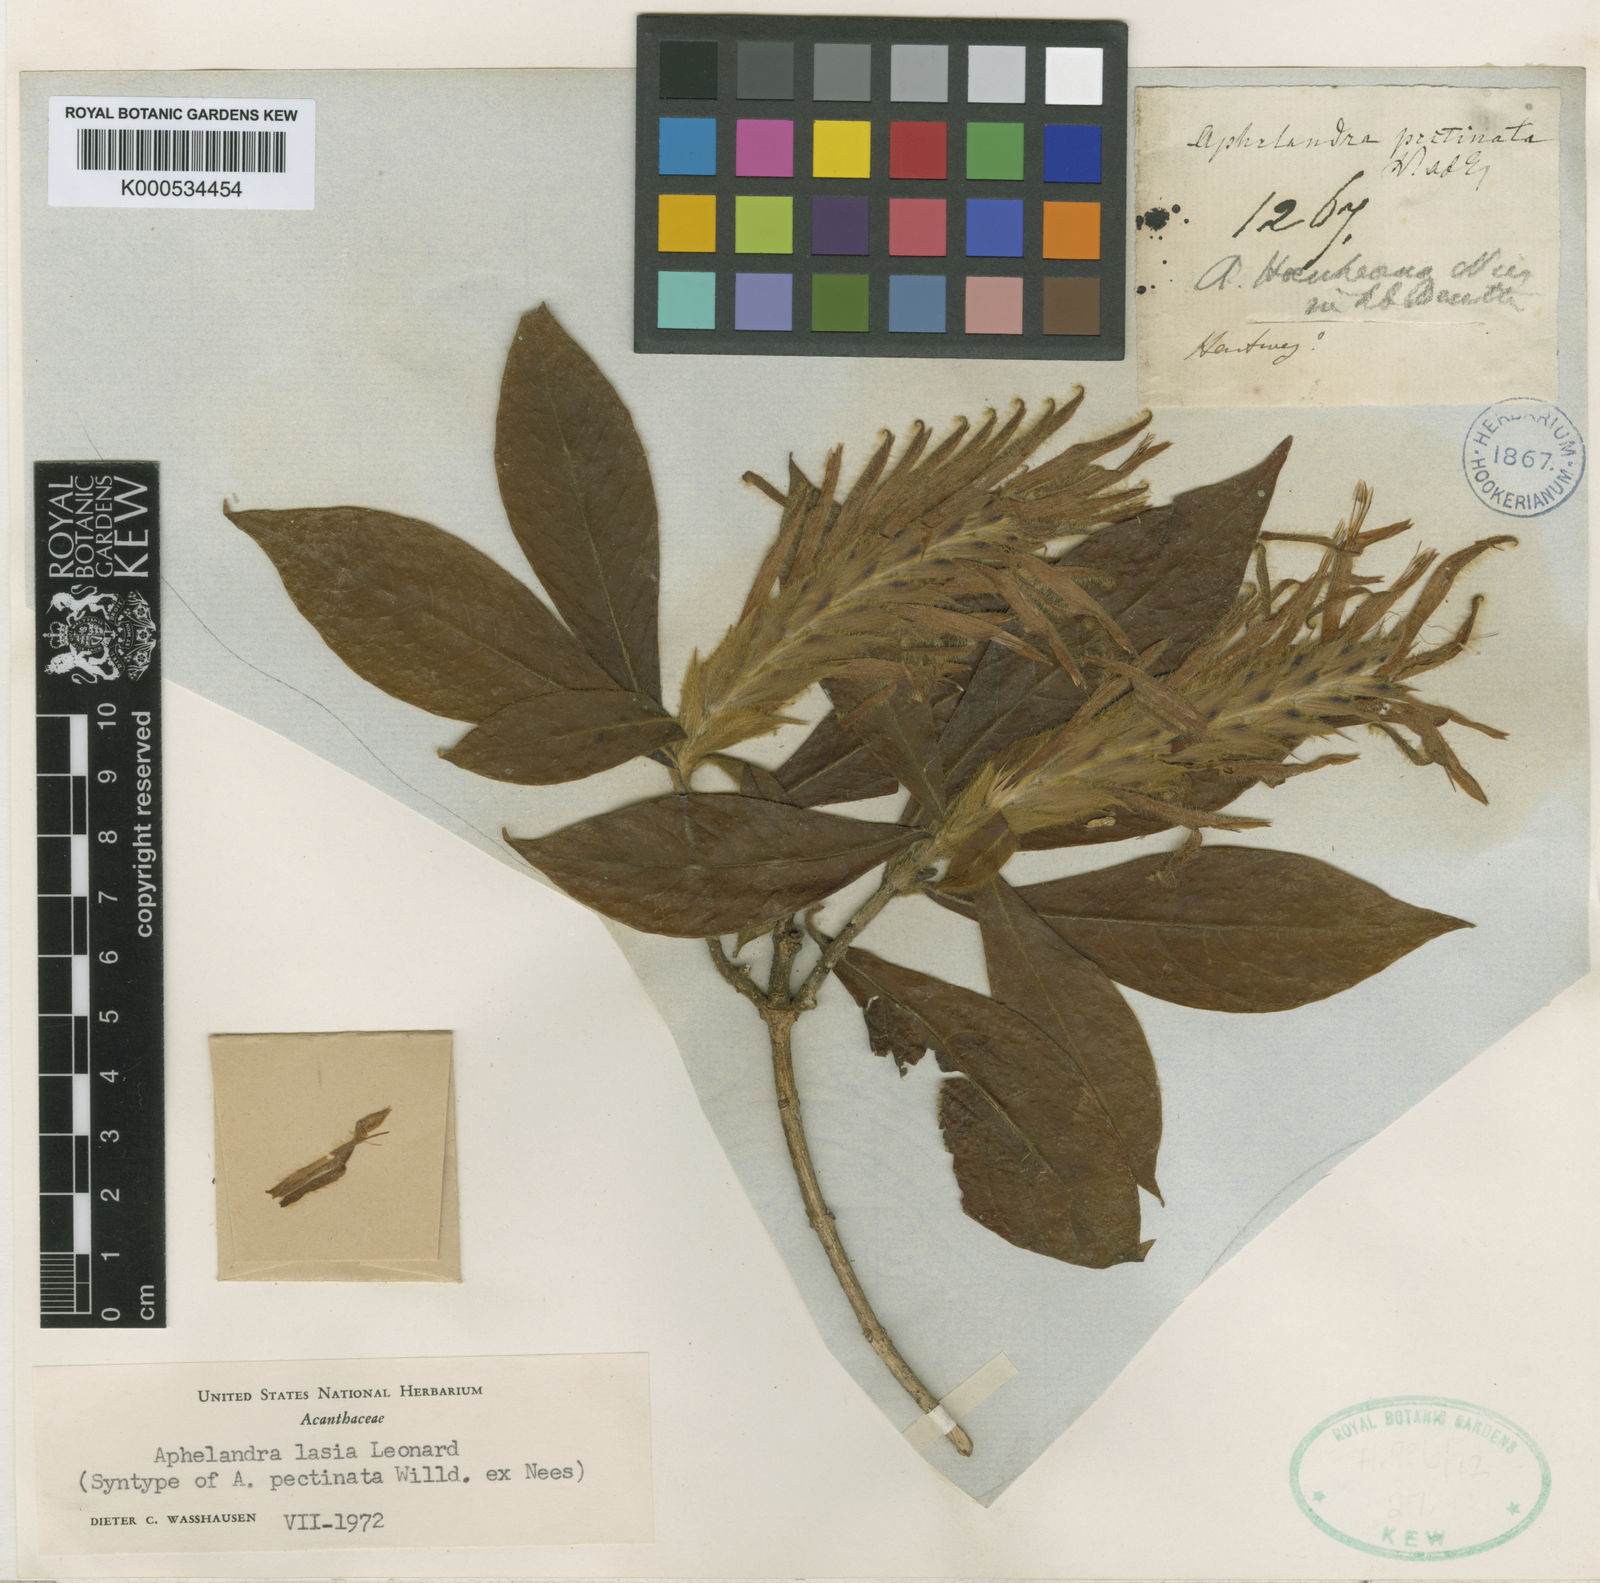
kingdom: Plantae
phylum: Tracheophyta
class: Magnoliopsida
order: Lamiales
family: Acanthaceae
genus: Aphelandra
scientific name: Aphelandra lasia
